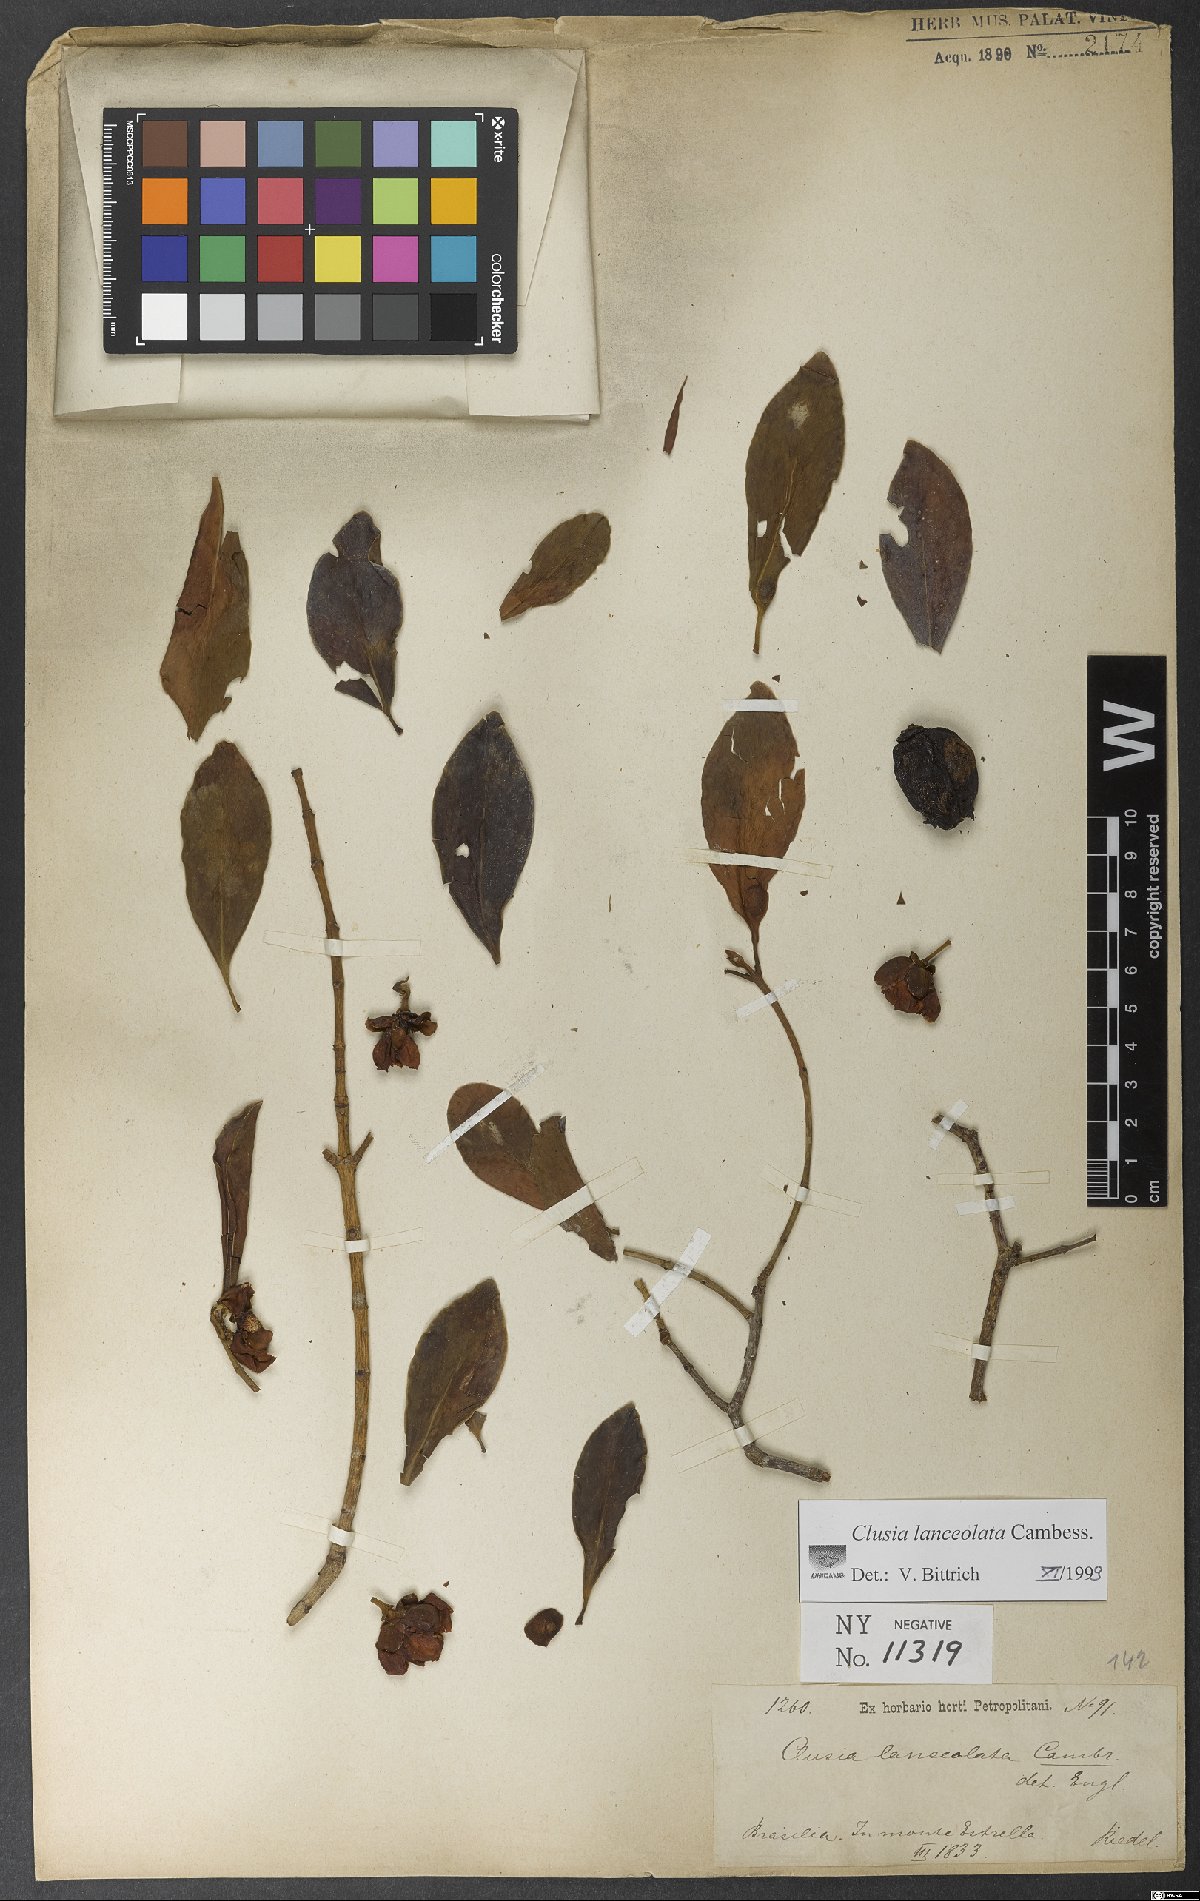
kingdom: Plantae
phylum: Tracheophyta
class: Magnoliopsida
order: Malpighiales
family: Clusiaceae
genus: Clusia
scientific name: Clusia lanceolata
